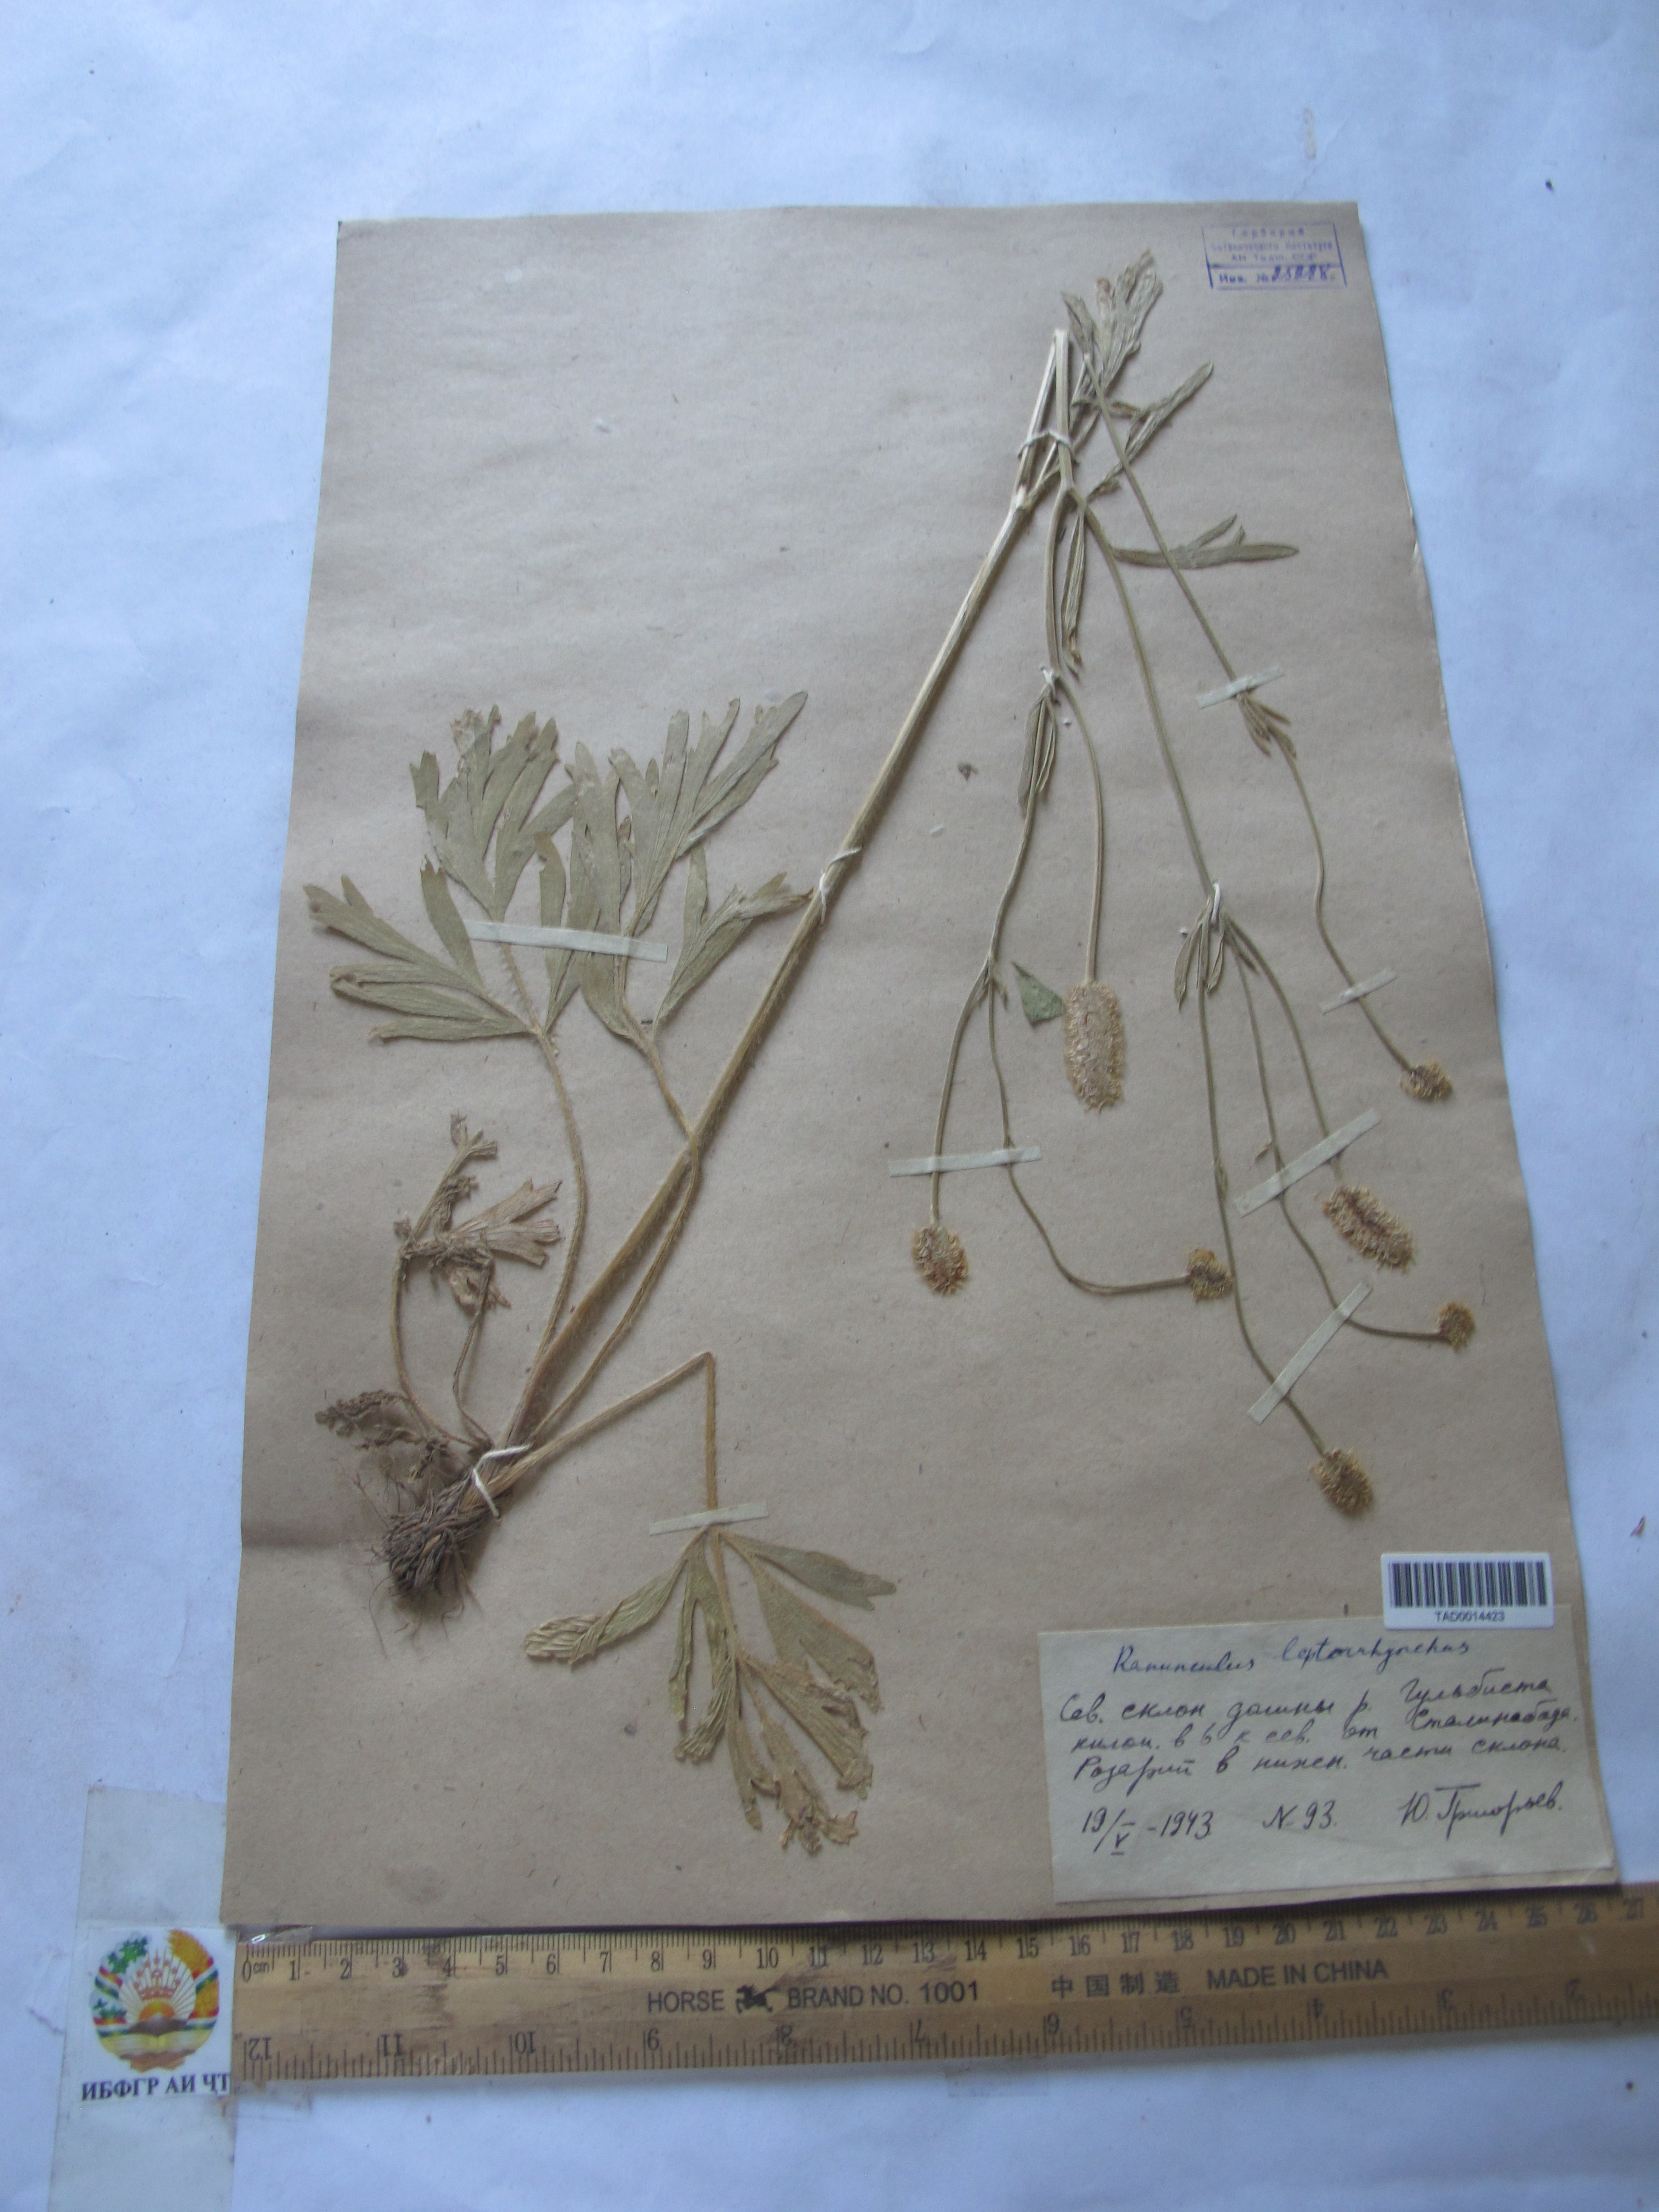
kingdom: Plantae
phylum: Tracheophyta
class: Magnoliopsida
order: Ranunculales
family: Ranunculaceae
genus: Ranunculus
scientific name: Ranunculus leptorrhynchus
